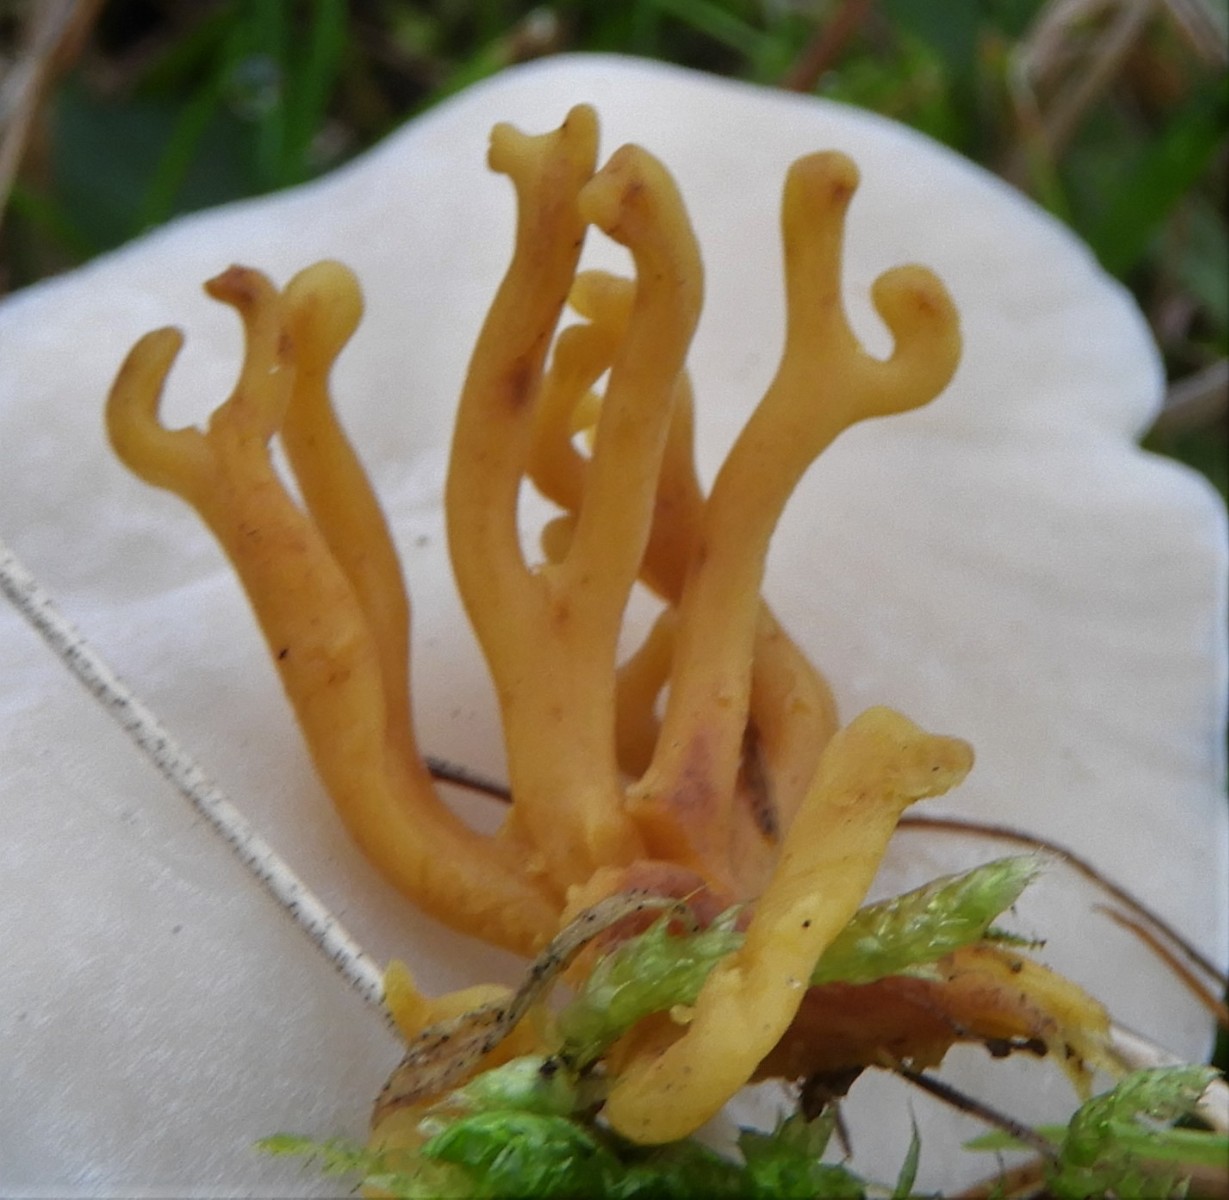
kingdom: Fungi
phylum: Basidiomycota
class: Agaricomycetes
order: Agaricales
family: Clavariaceae
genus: Clavulinopsis
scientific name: Clavulinopsis corniculata
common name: eng-køllesvamp
